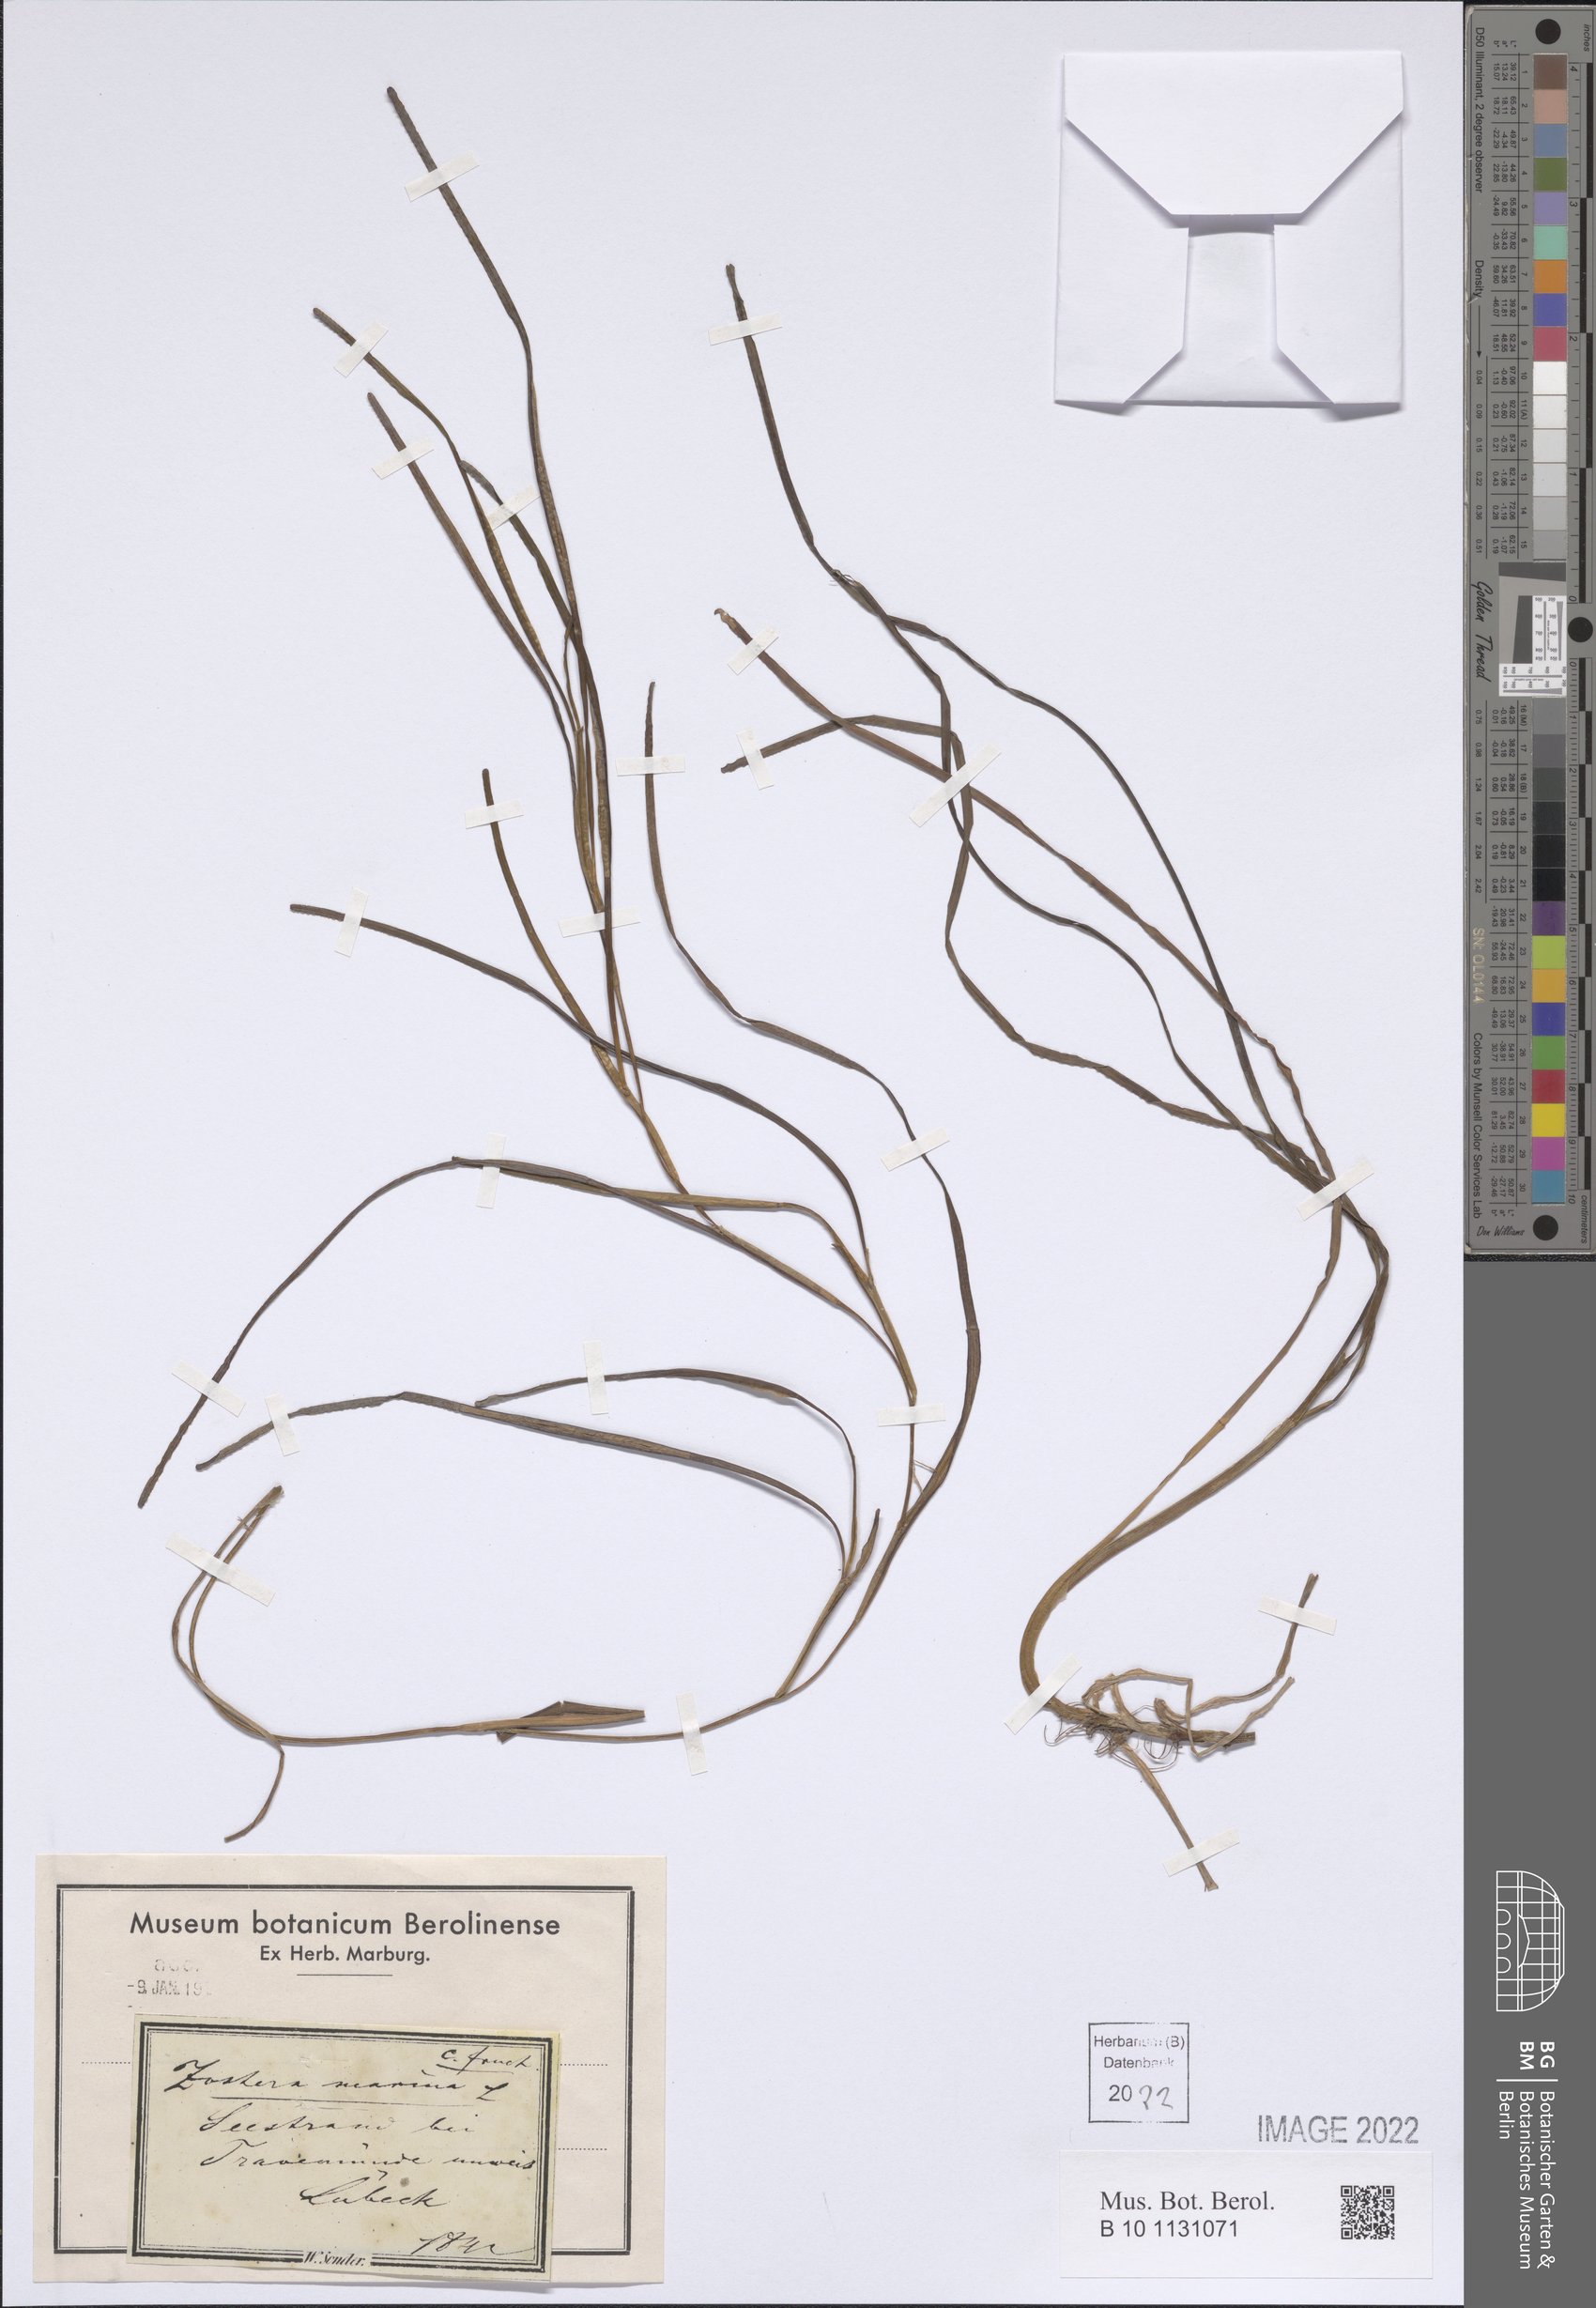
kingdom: Plantae
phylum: Tracheophyta
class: Liliopsida
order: Alismatales
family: Zosteraceae
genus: Zostera
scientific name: Zostera marina
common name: Eelgrass
